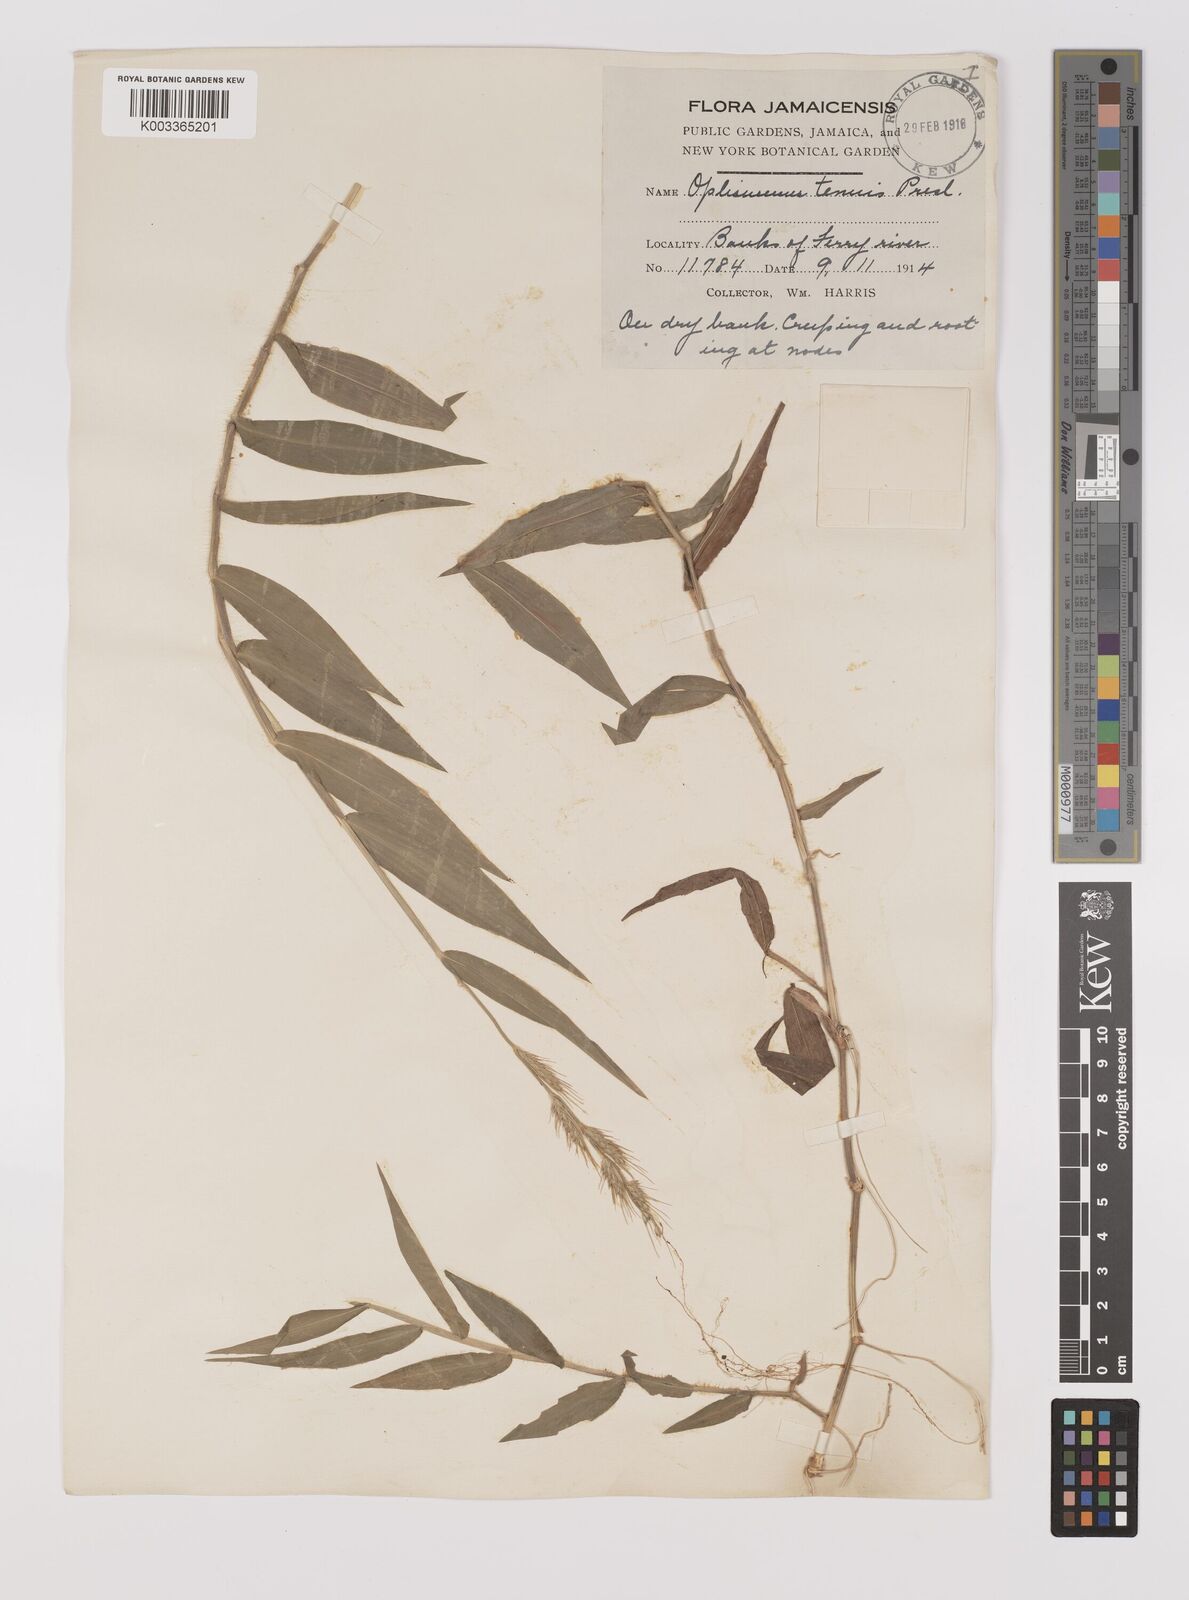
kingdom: Plantae
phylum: Tracheophyta
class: Liliopsida
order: Poales
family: Poaceae
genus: Oplismenus
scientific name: Oplismenus hirtellus
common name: Basketgrass
